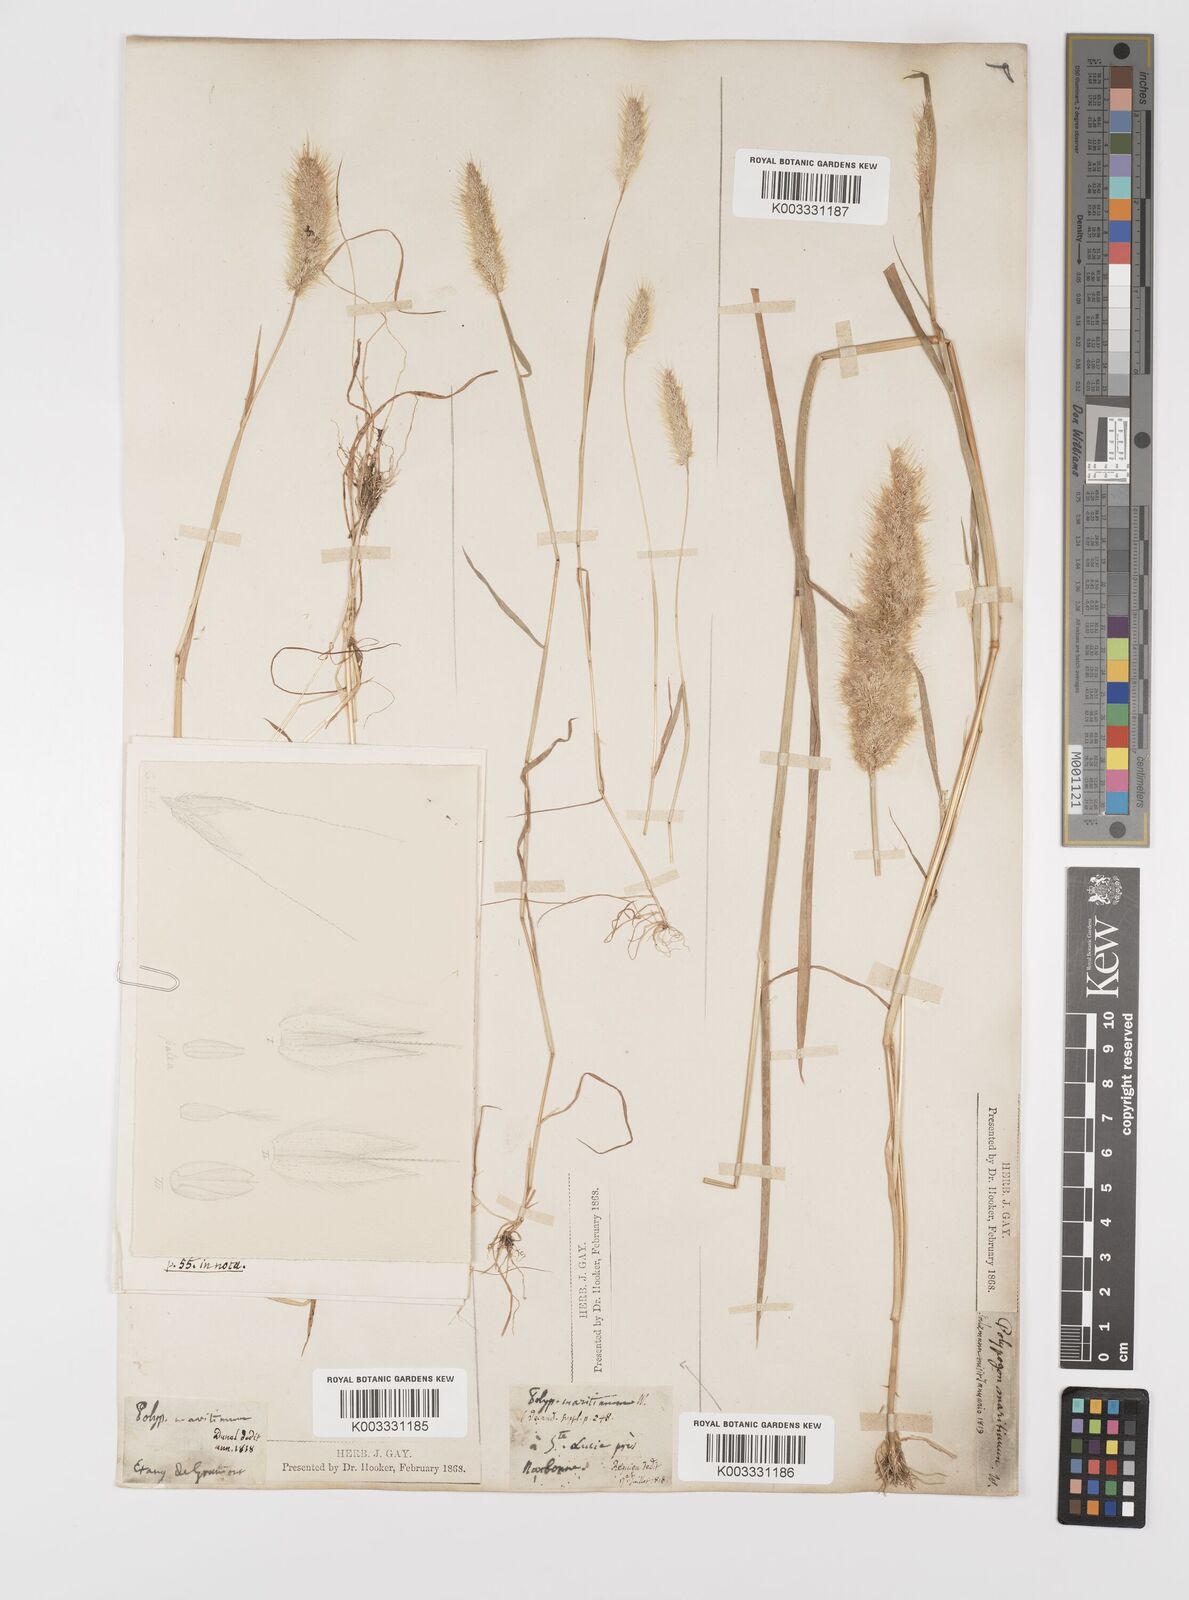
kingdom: Plantae
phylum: Tracheophyta
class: Liliopsida
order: Poales
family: Poaceae
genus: Polypogon
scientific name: Polypogon maritimus
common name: Mediterranean rabbitsfoot grass
